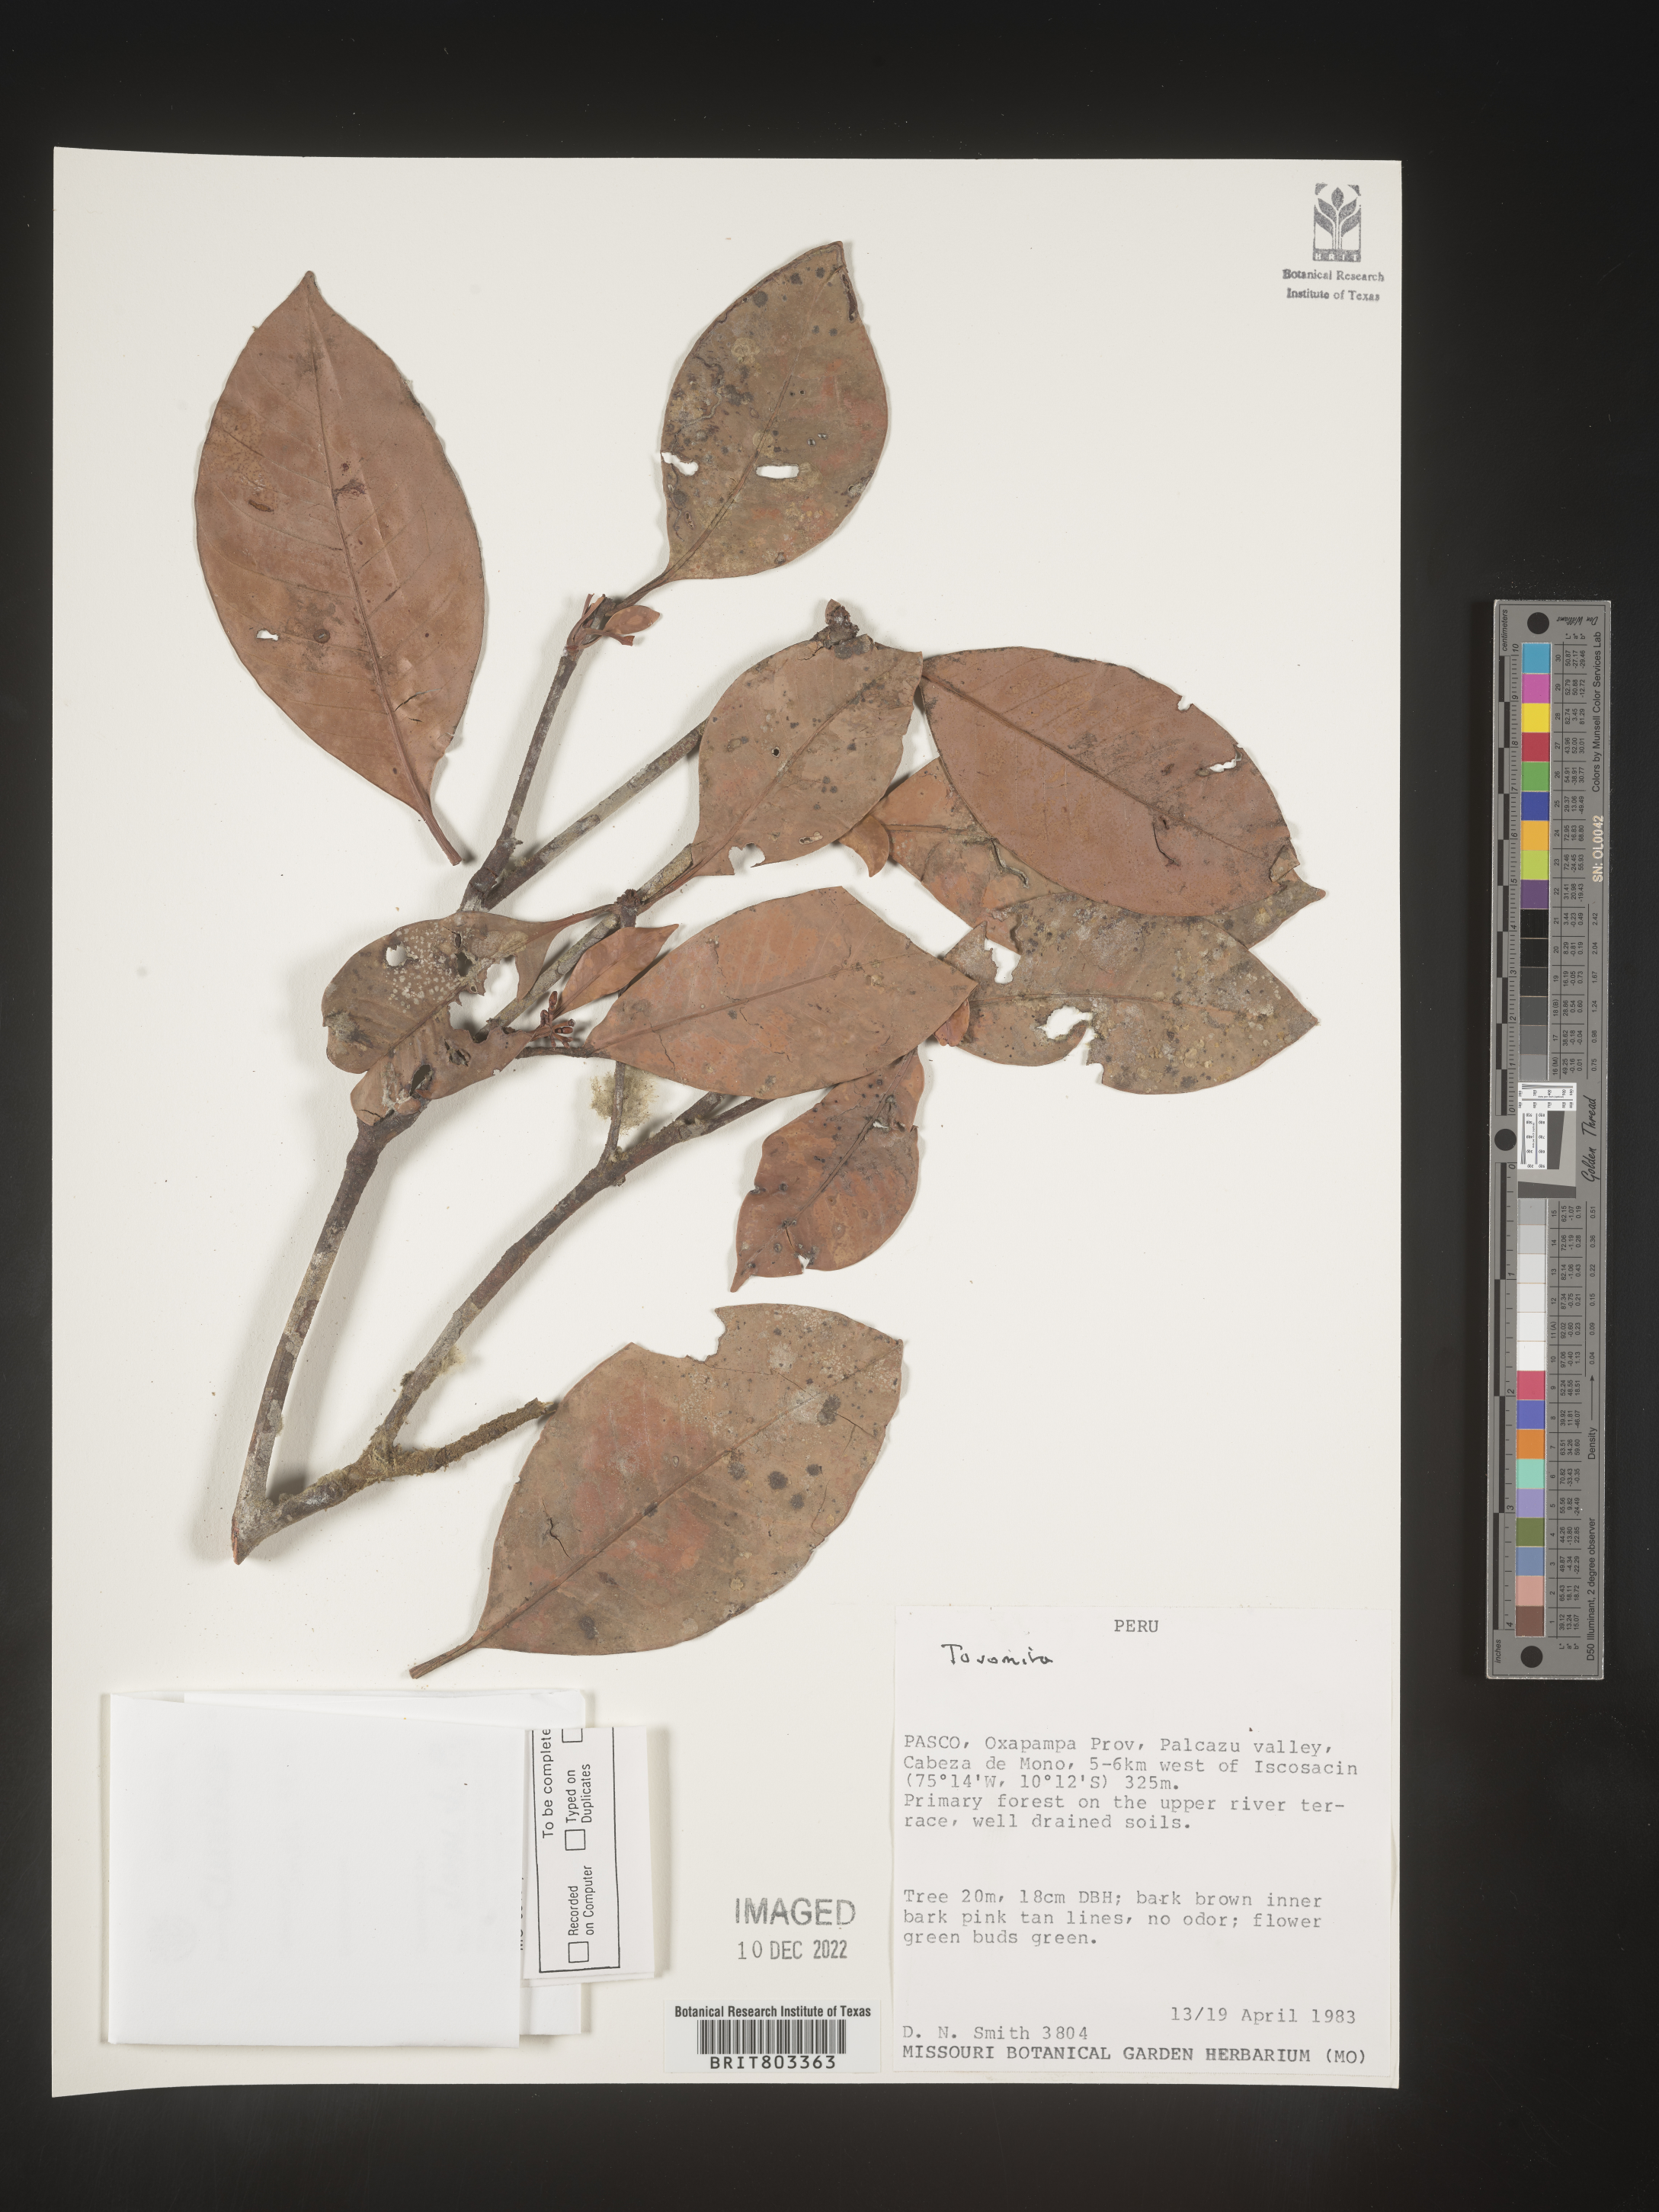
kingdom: Plantae
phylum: Tracheophyta
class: Magnoliopsida
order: Malpighiales
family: Clusiaceae
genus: Tovomita
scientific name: Tovomita
